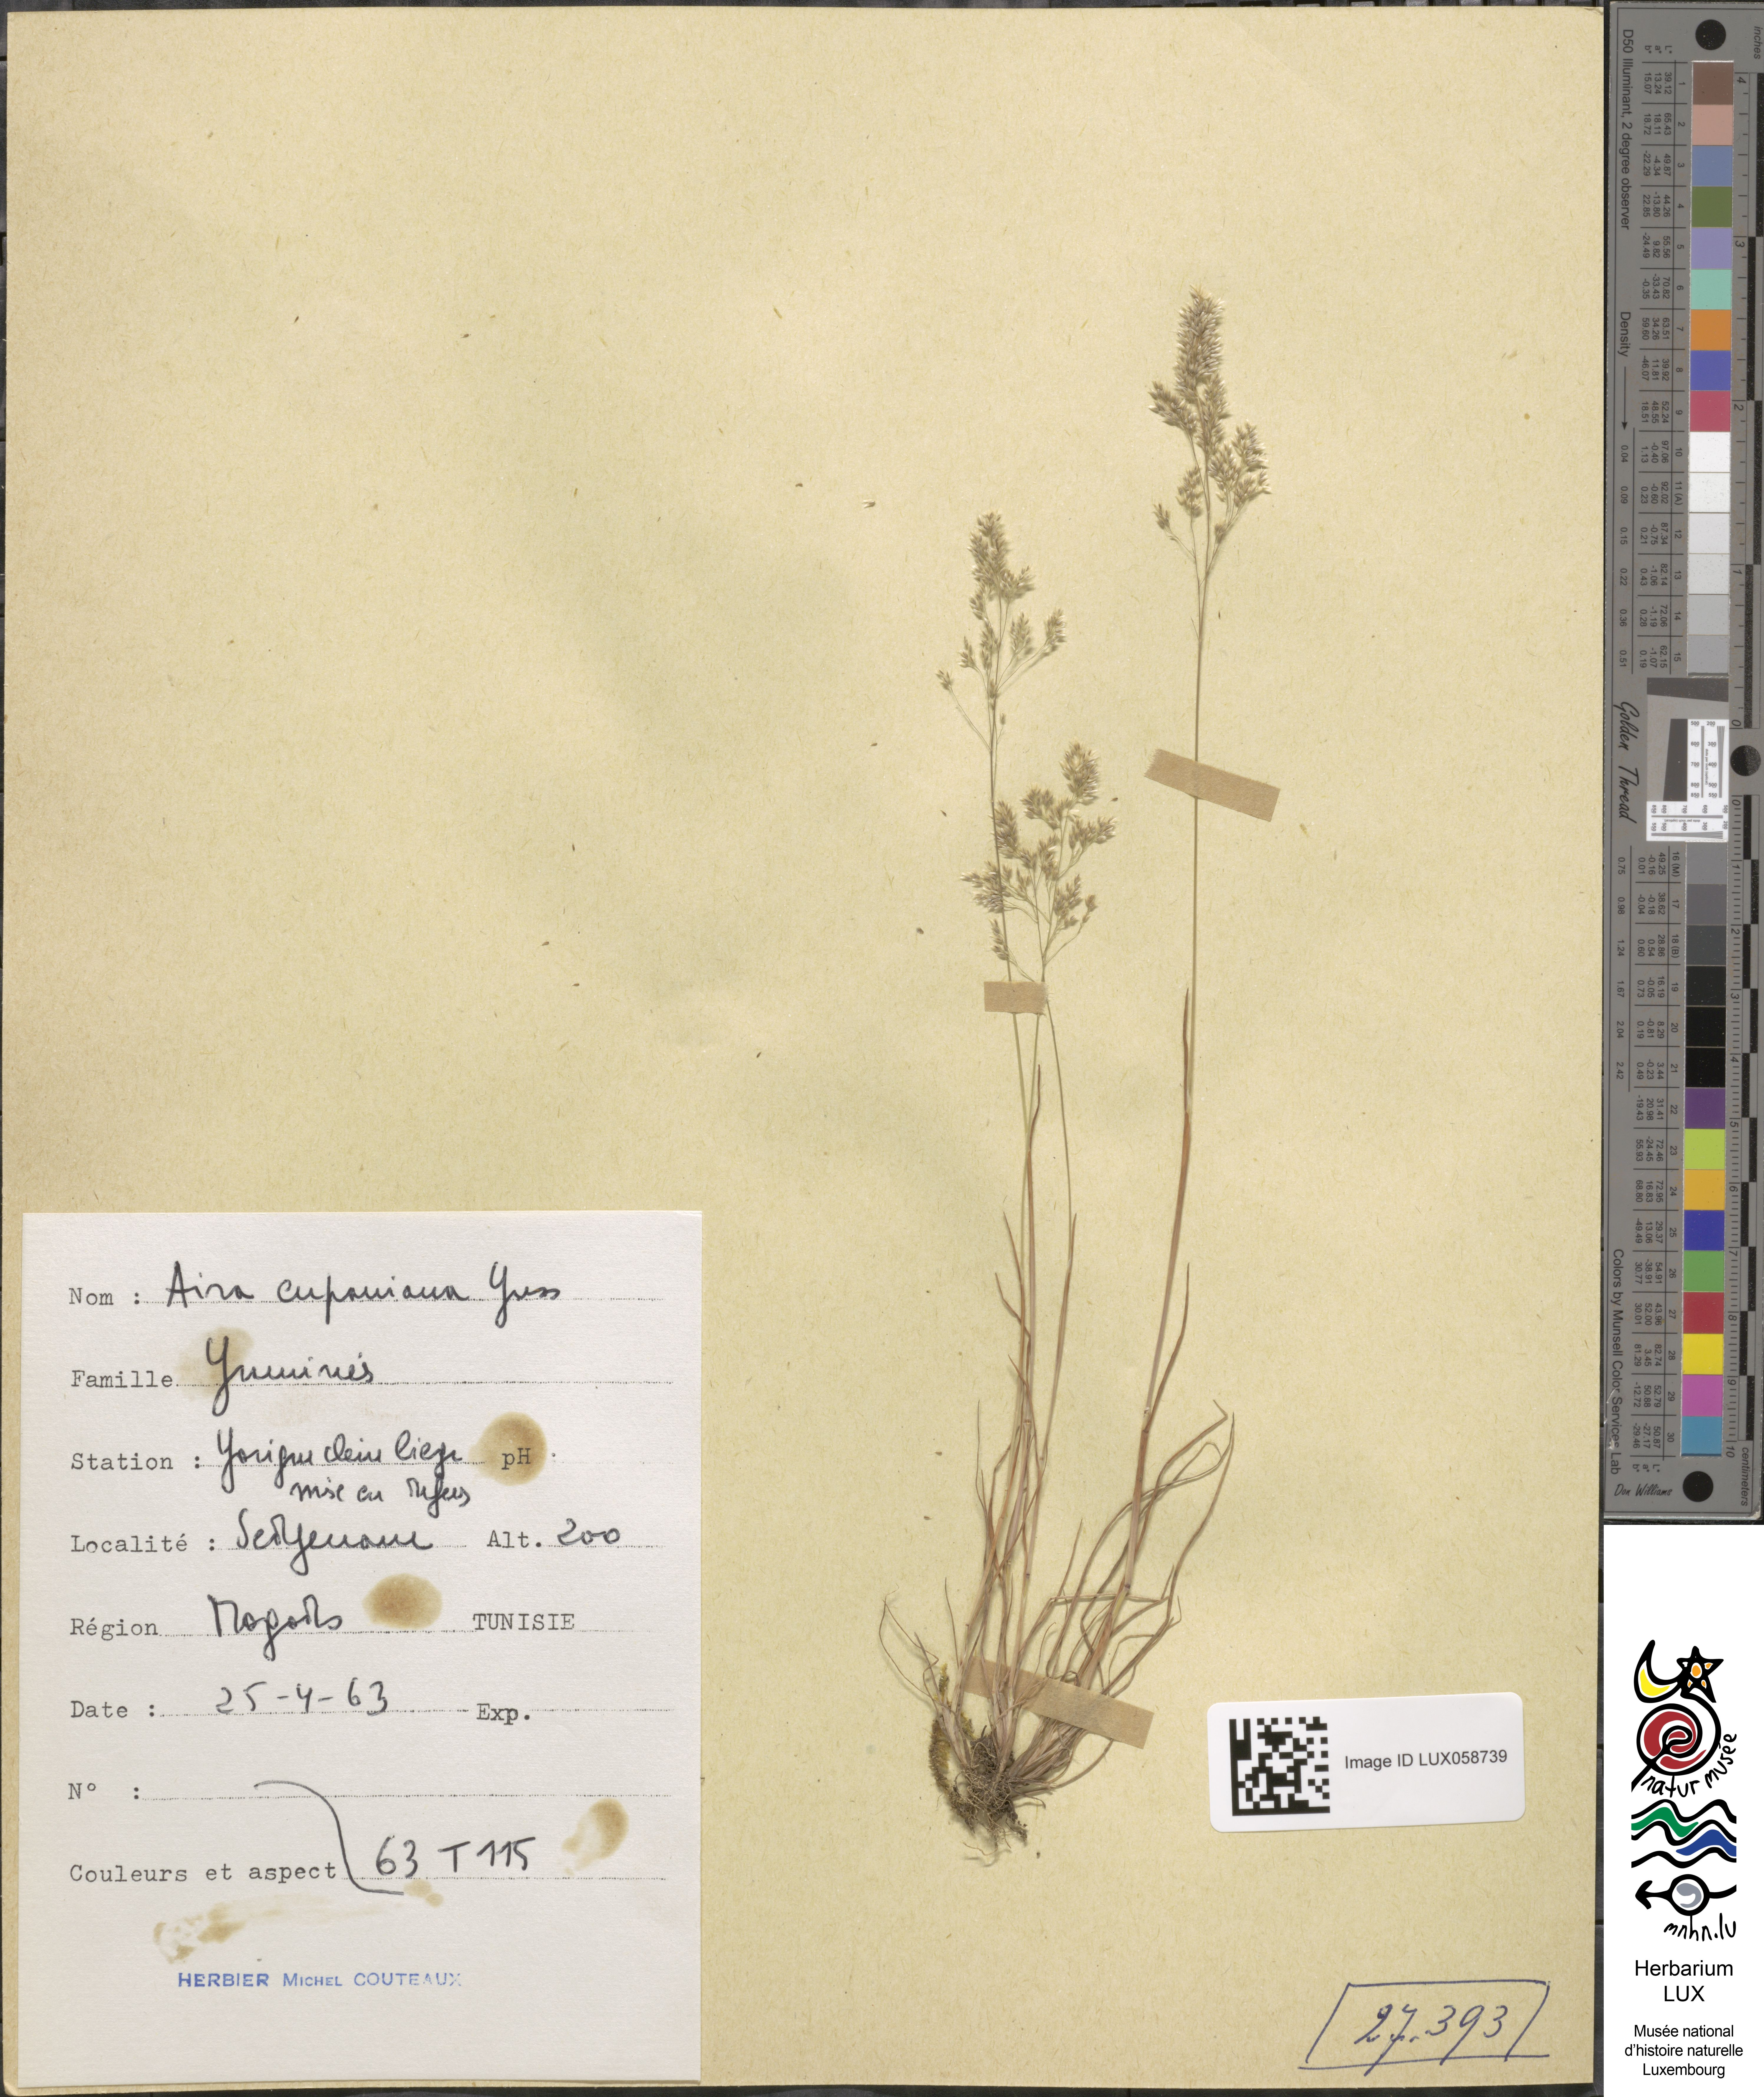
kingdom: Plantae
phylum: Tracheophyta
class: Liliopsida
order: Poales
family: Poaceae
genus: Aira
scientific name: Aira cupaniana
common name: Silver hairgrass
